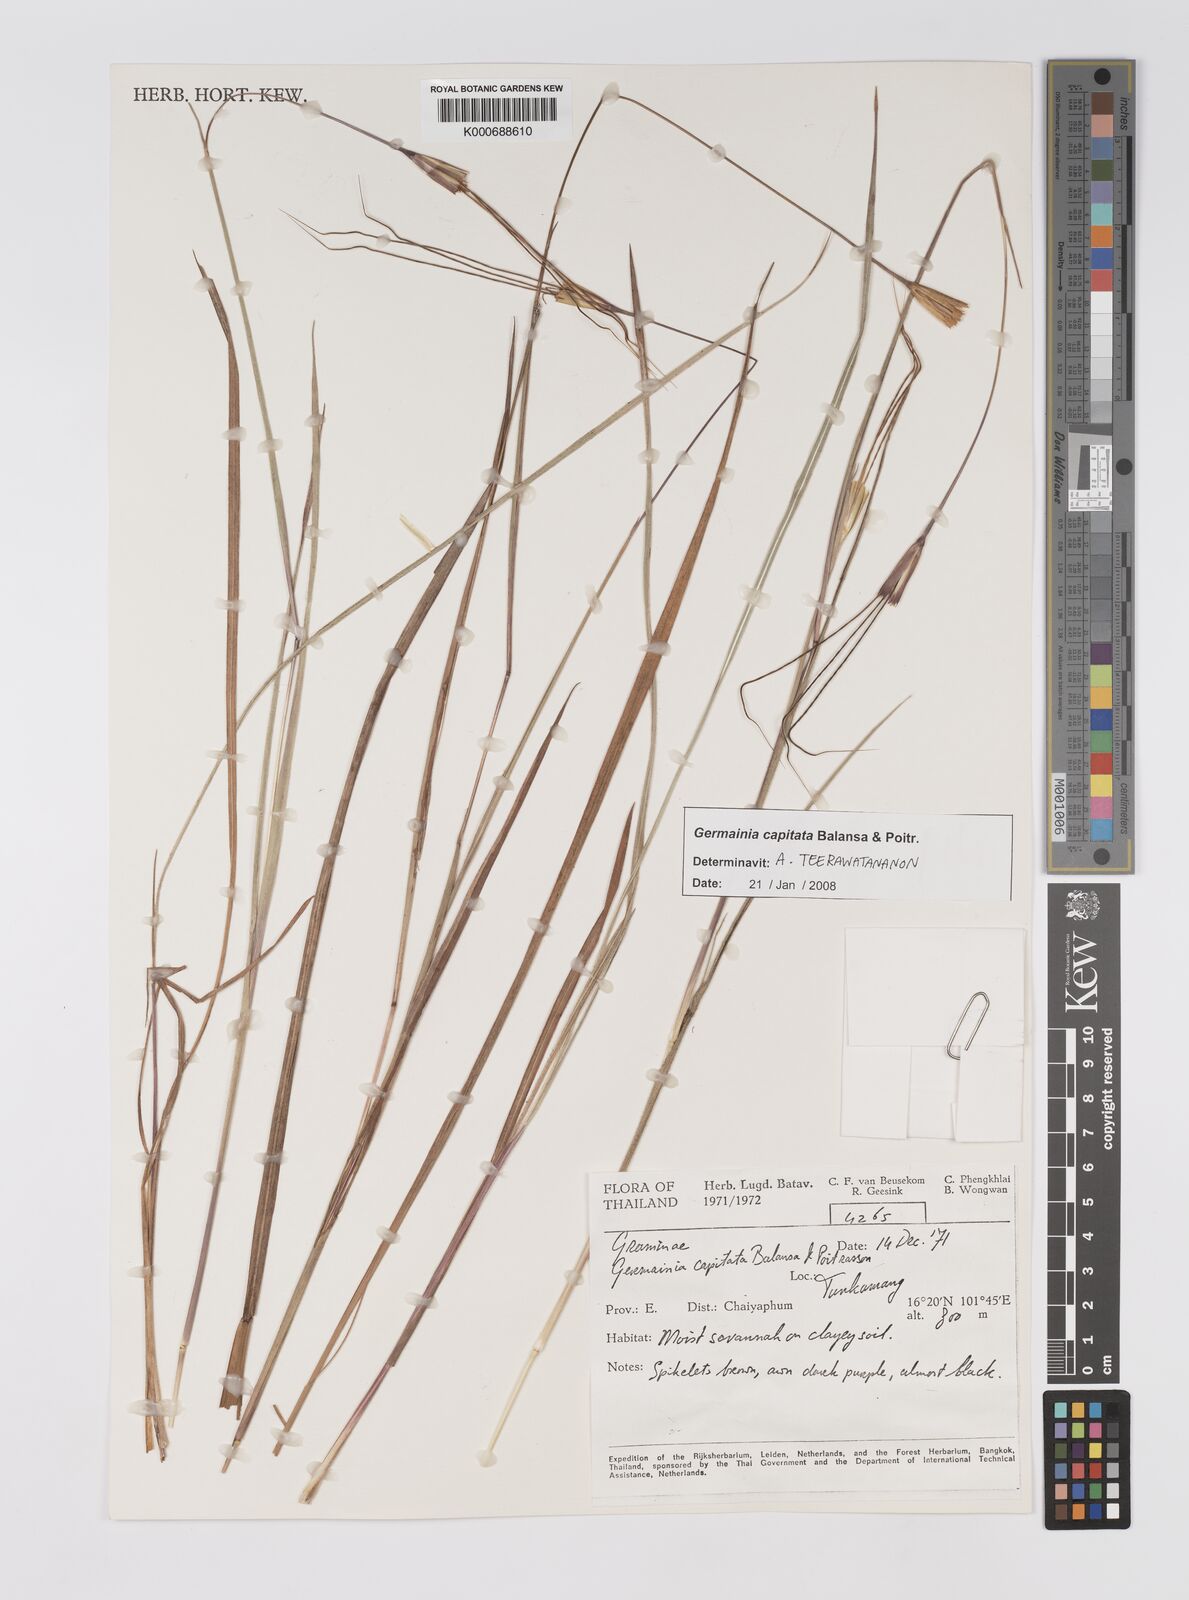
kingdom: Plantae
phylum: Tracheophyta
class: Liliopsida
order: Poales
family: Poaceae
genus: Germainia
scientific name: Germainia capitata
